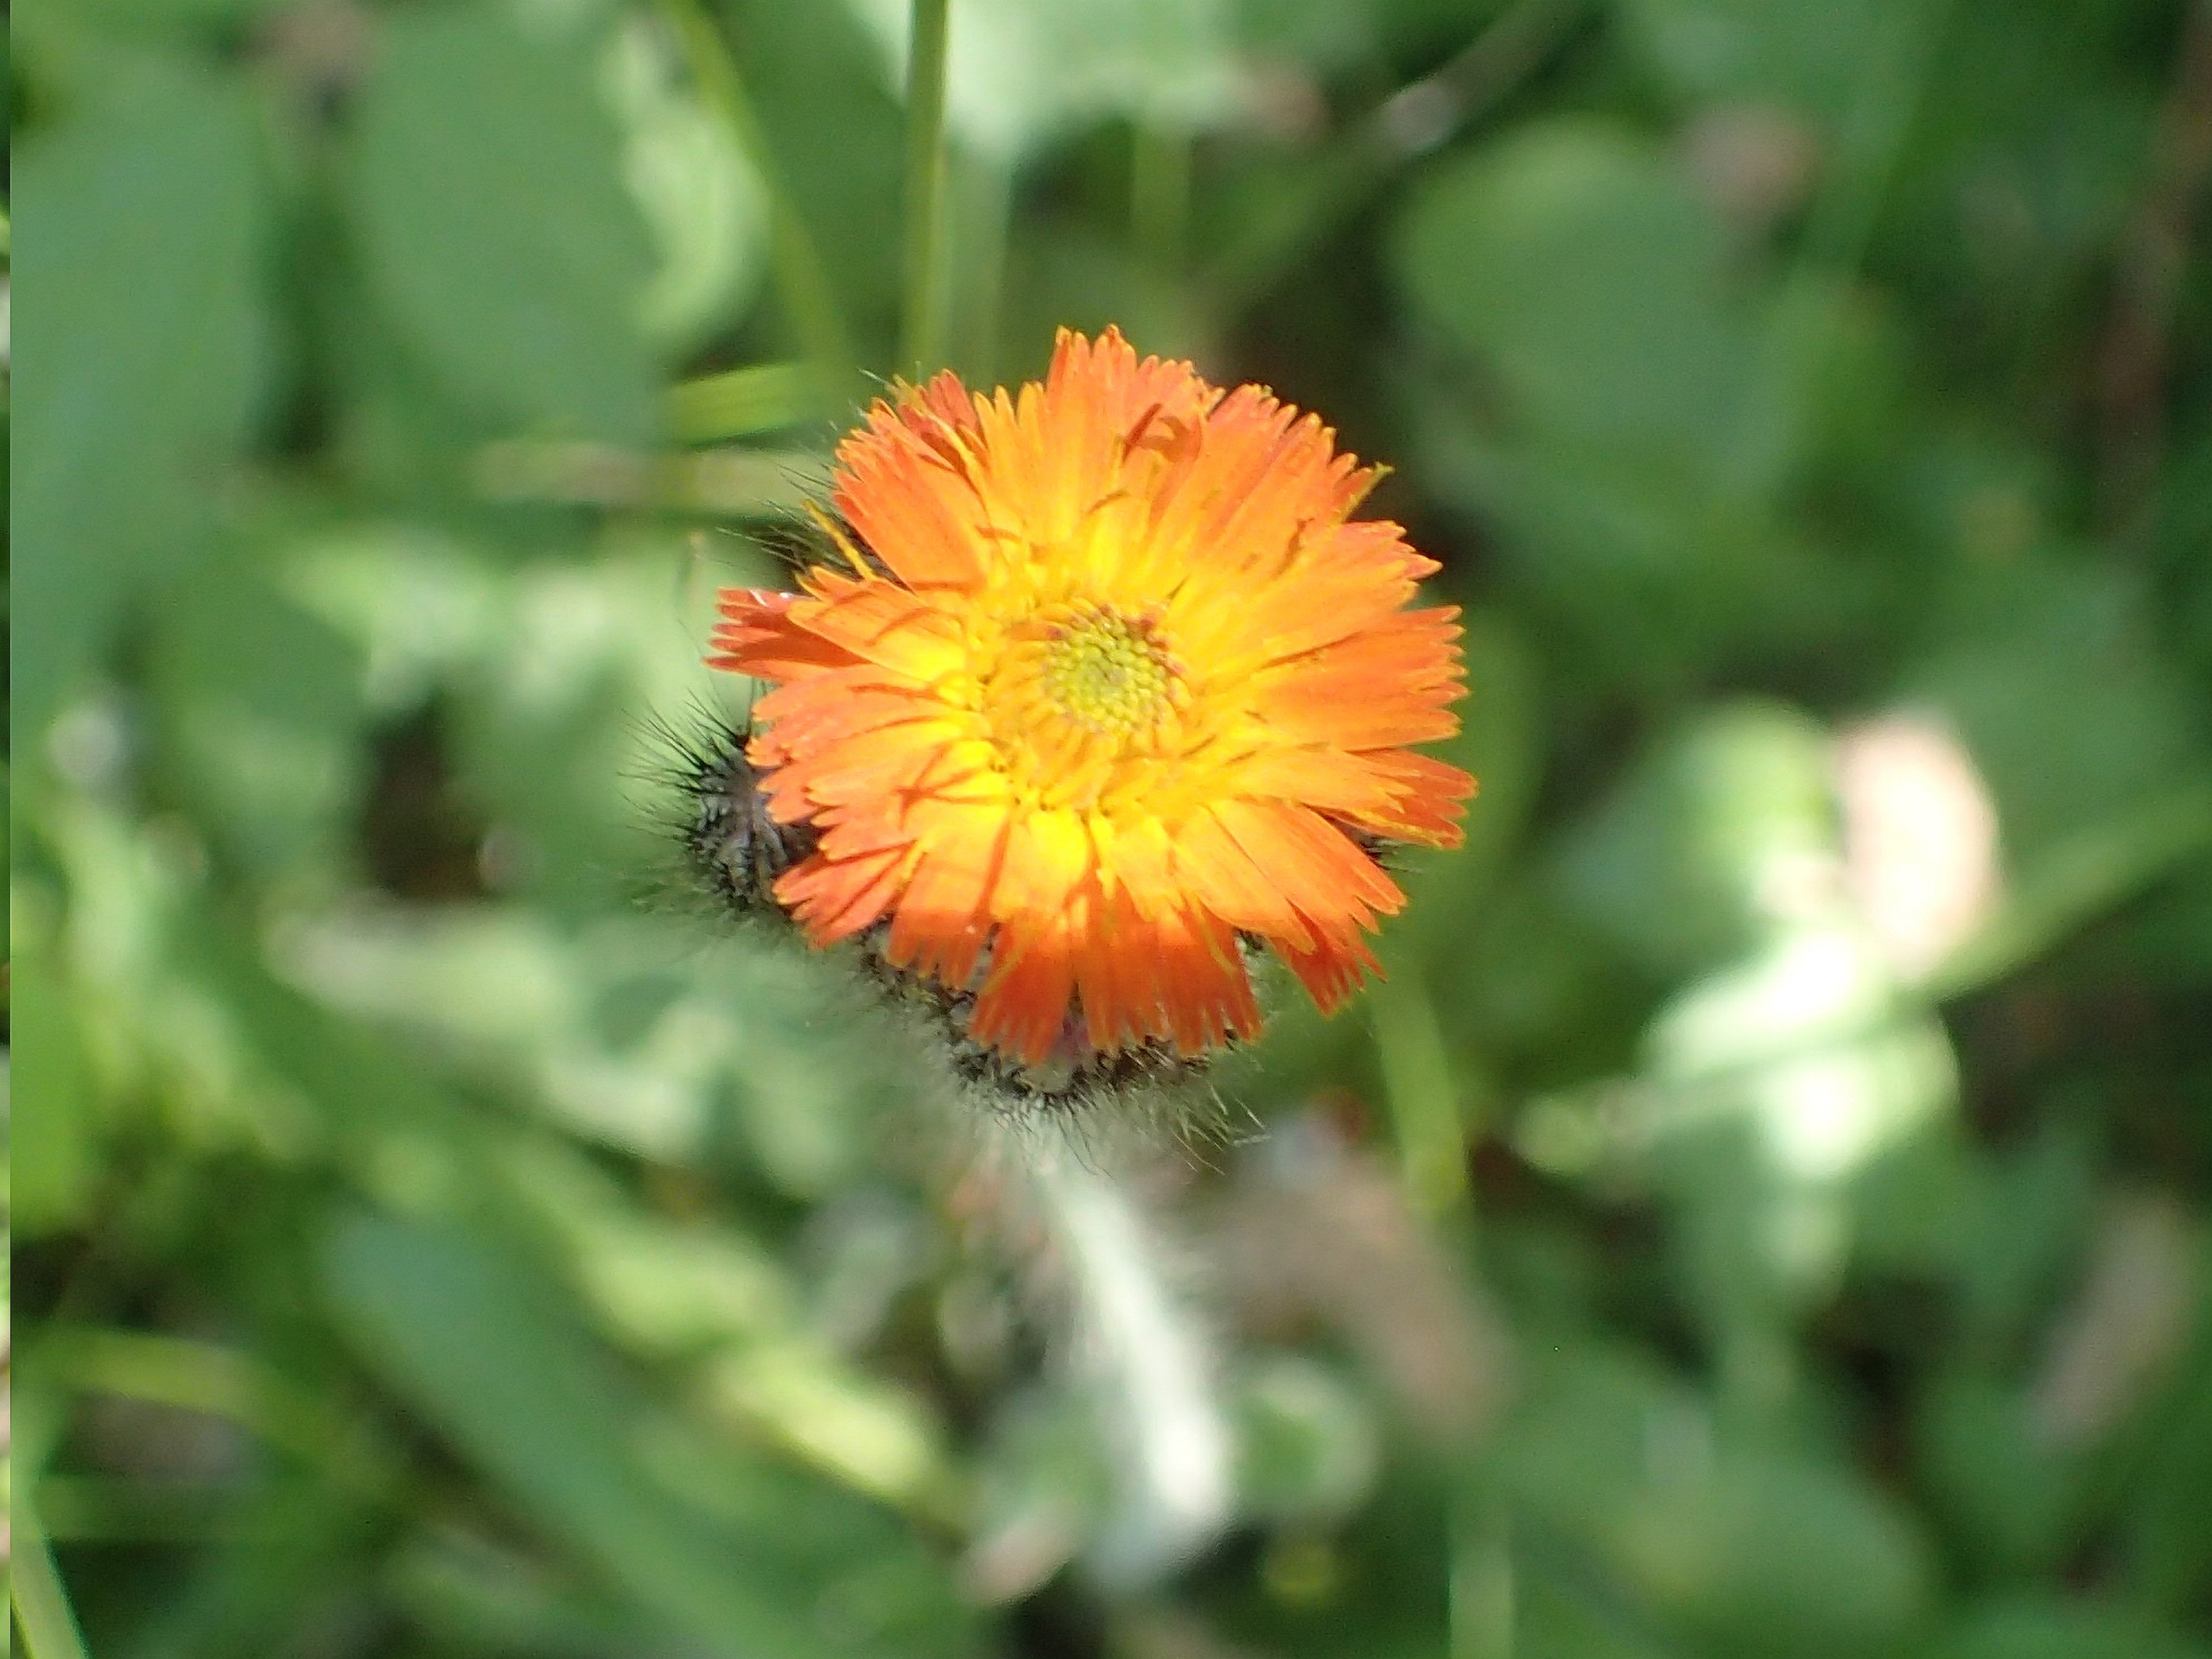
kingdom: Plantae
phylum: Tracheophyta
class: Magnoliopsida
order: Asterales
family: Asteraceae
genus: Pilosella
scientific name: Pilosella
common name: Pomerans-høgeurt × håret høgeurt
